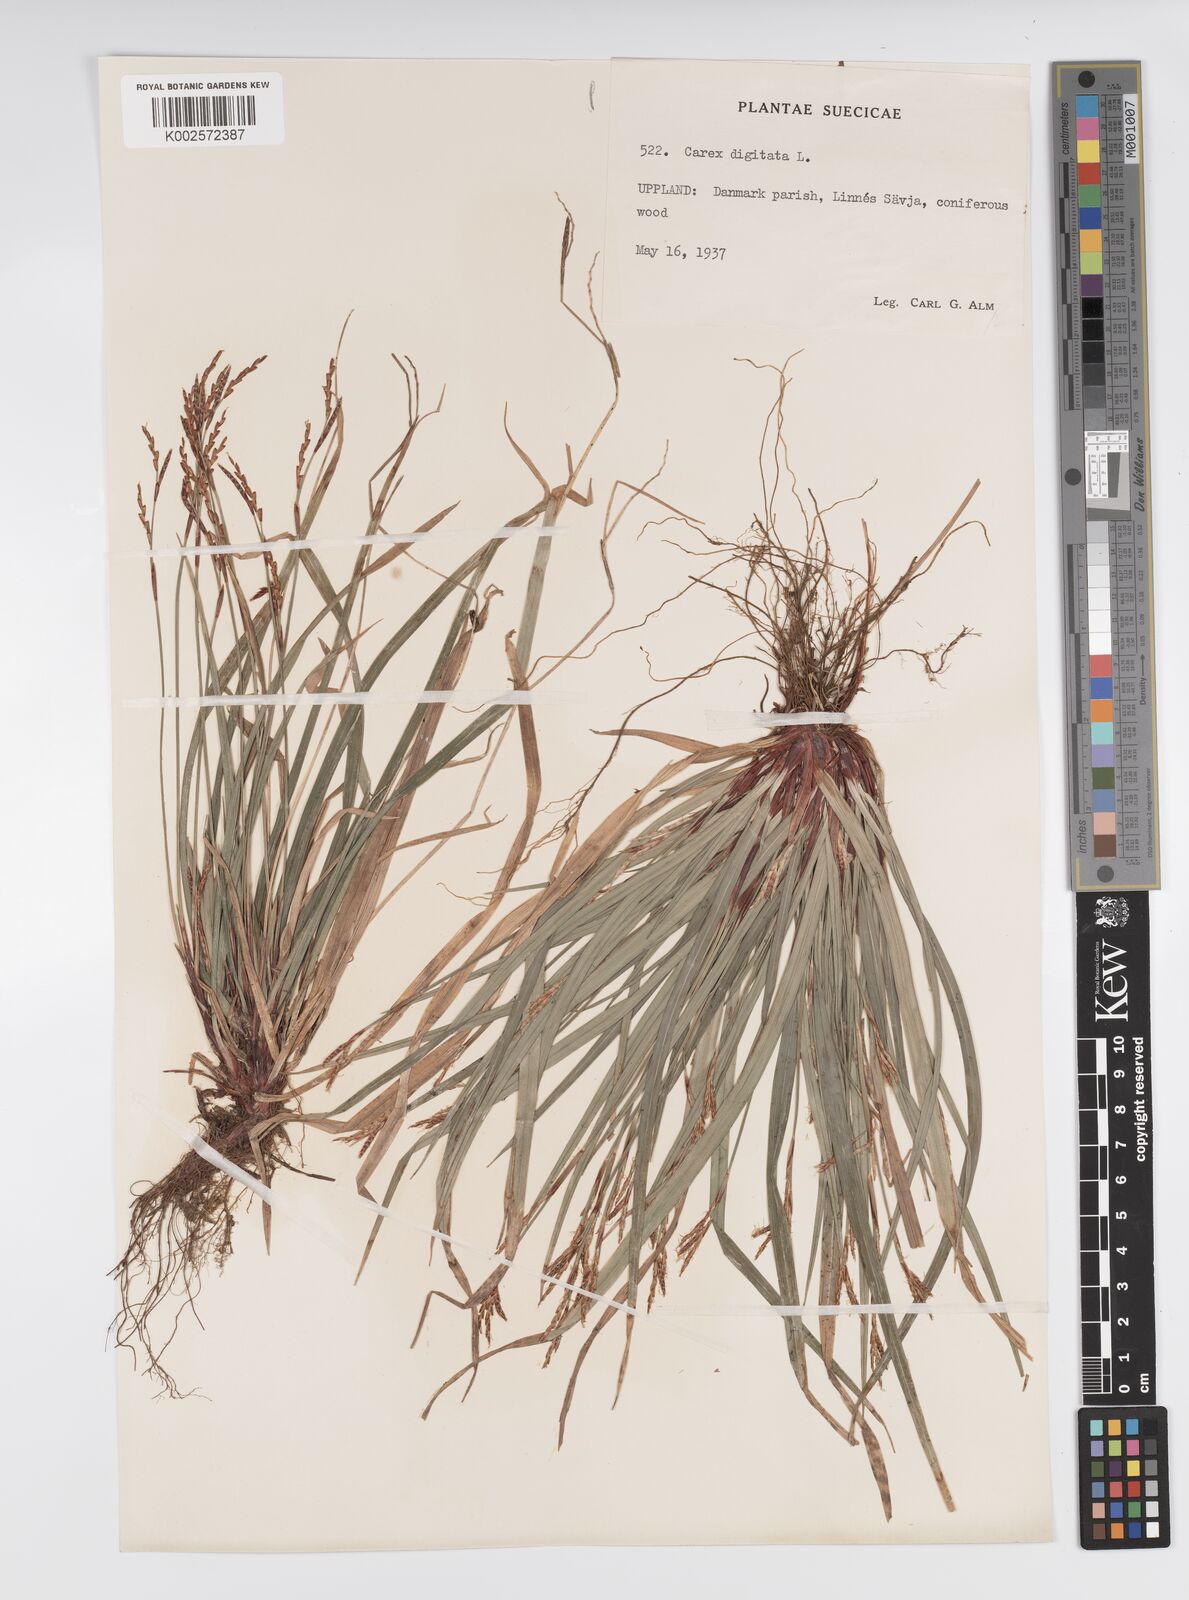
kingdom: Plantae
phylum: Tracheophyta
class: Liliopsida
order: Poales
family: Cyperaceae
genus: Carex
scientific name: Carex digitata
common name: Fingered sedge
